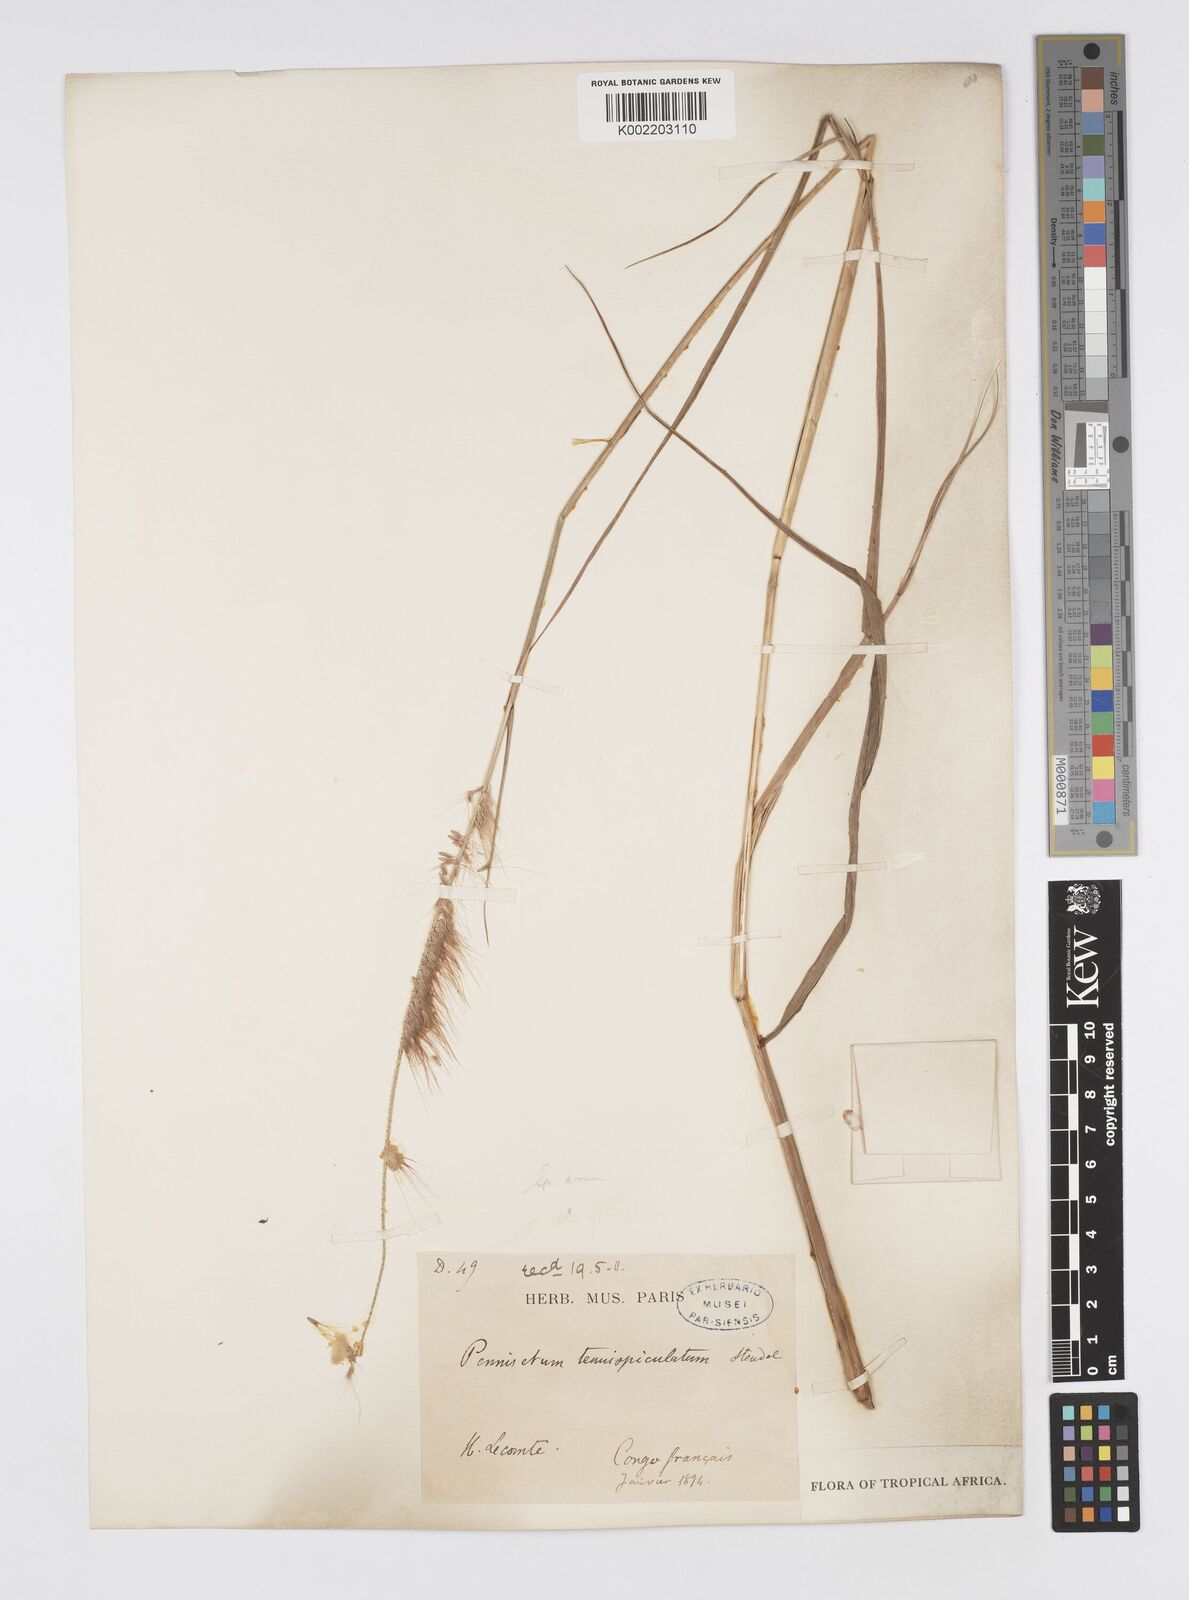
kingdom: Plantae
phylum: Tracheophyta
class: Liliopsida
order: Poales
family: Poaceae
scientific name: Poaceae
